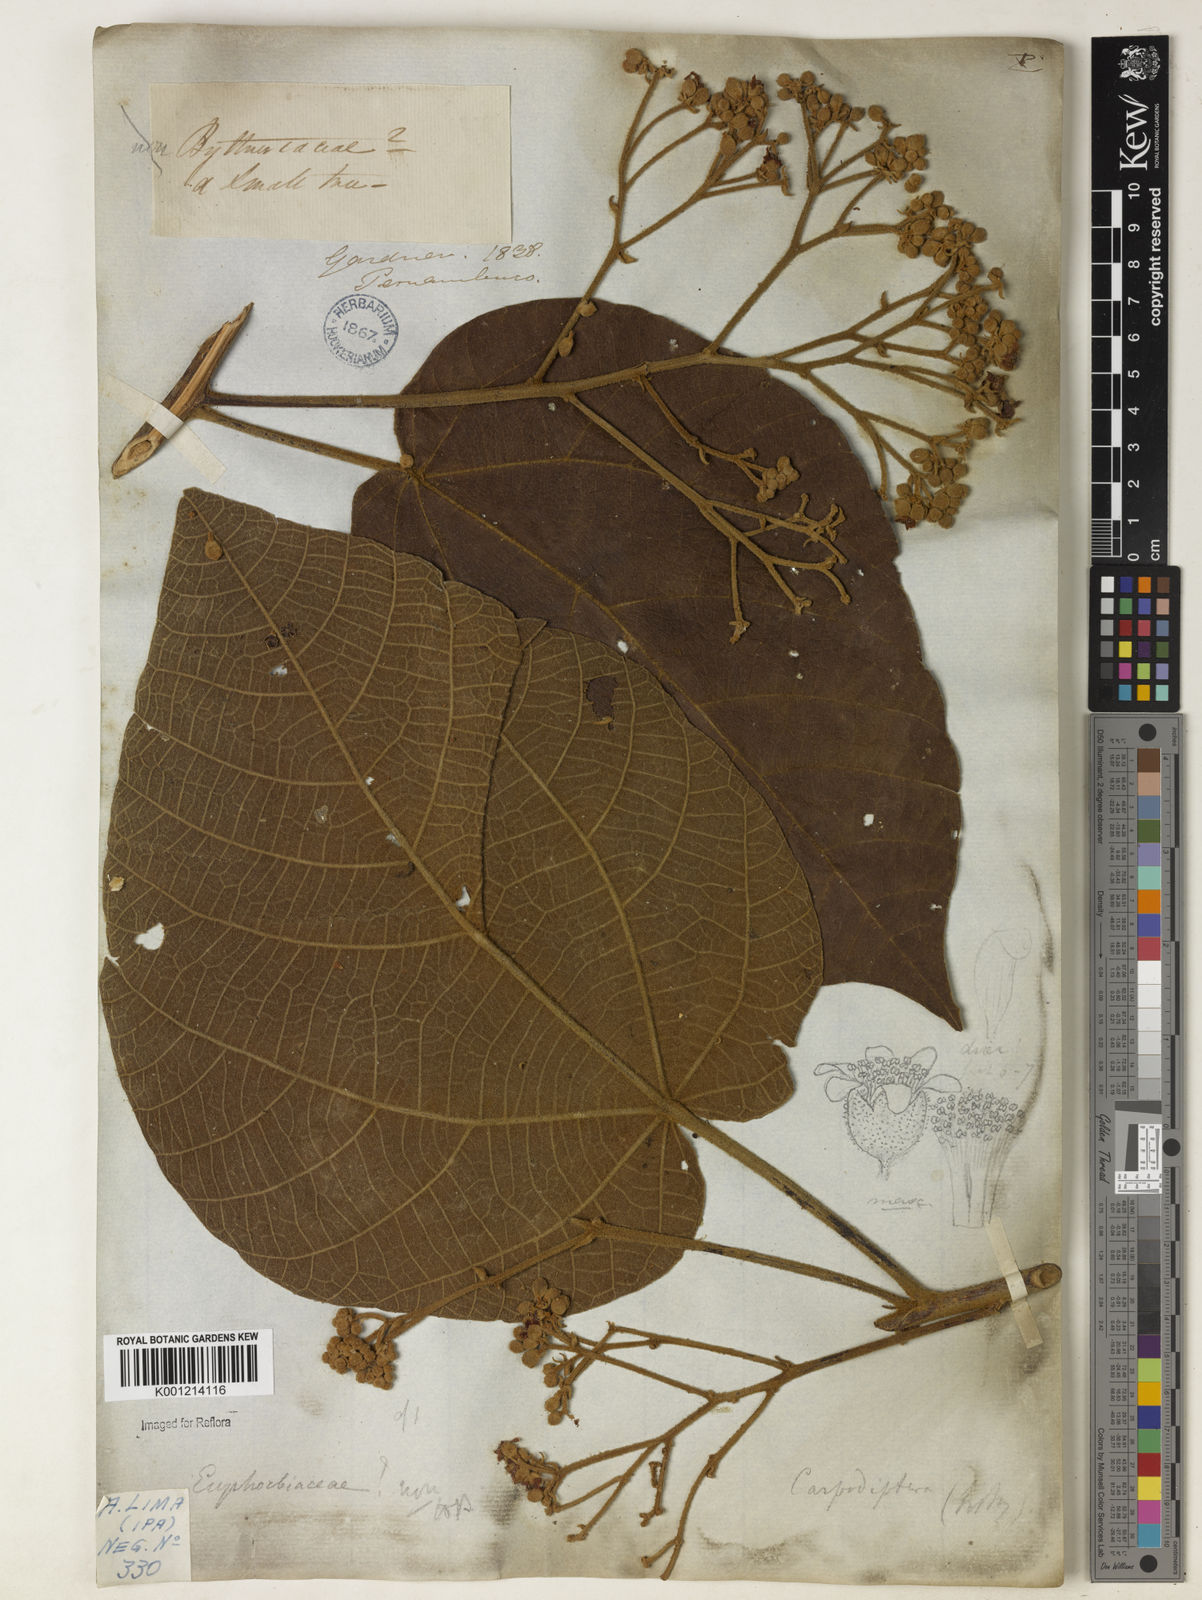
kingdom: Plantae
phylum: Tracheophyta
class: Magnoliopsida
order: Malvales
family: Malvaceae
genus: Christiana
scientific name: Christiana africana
